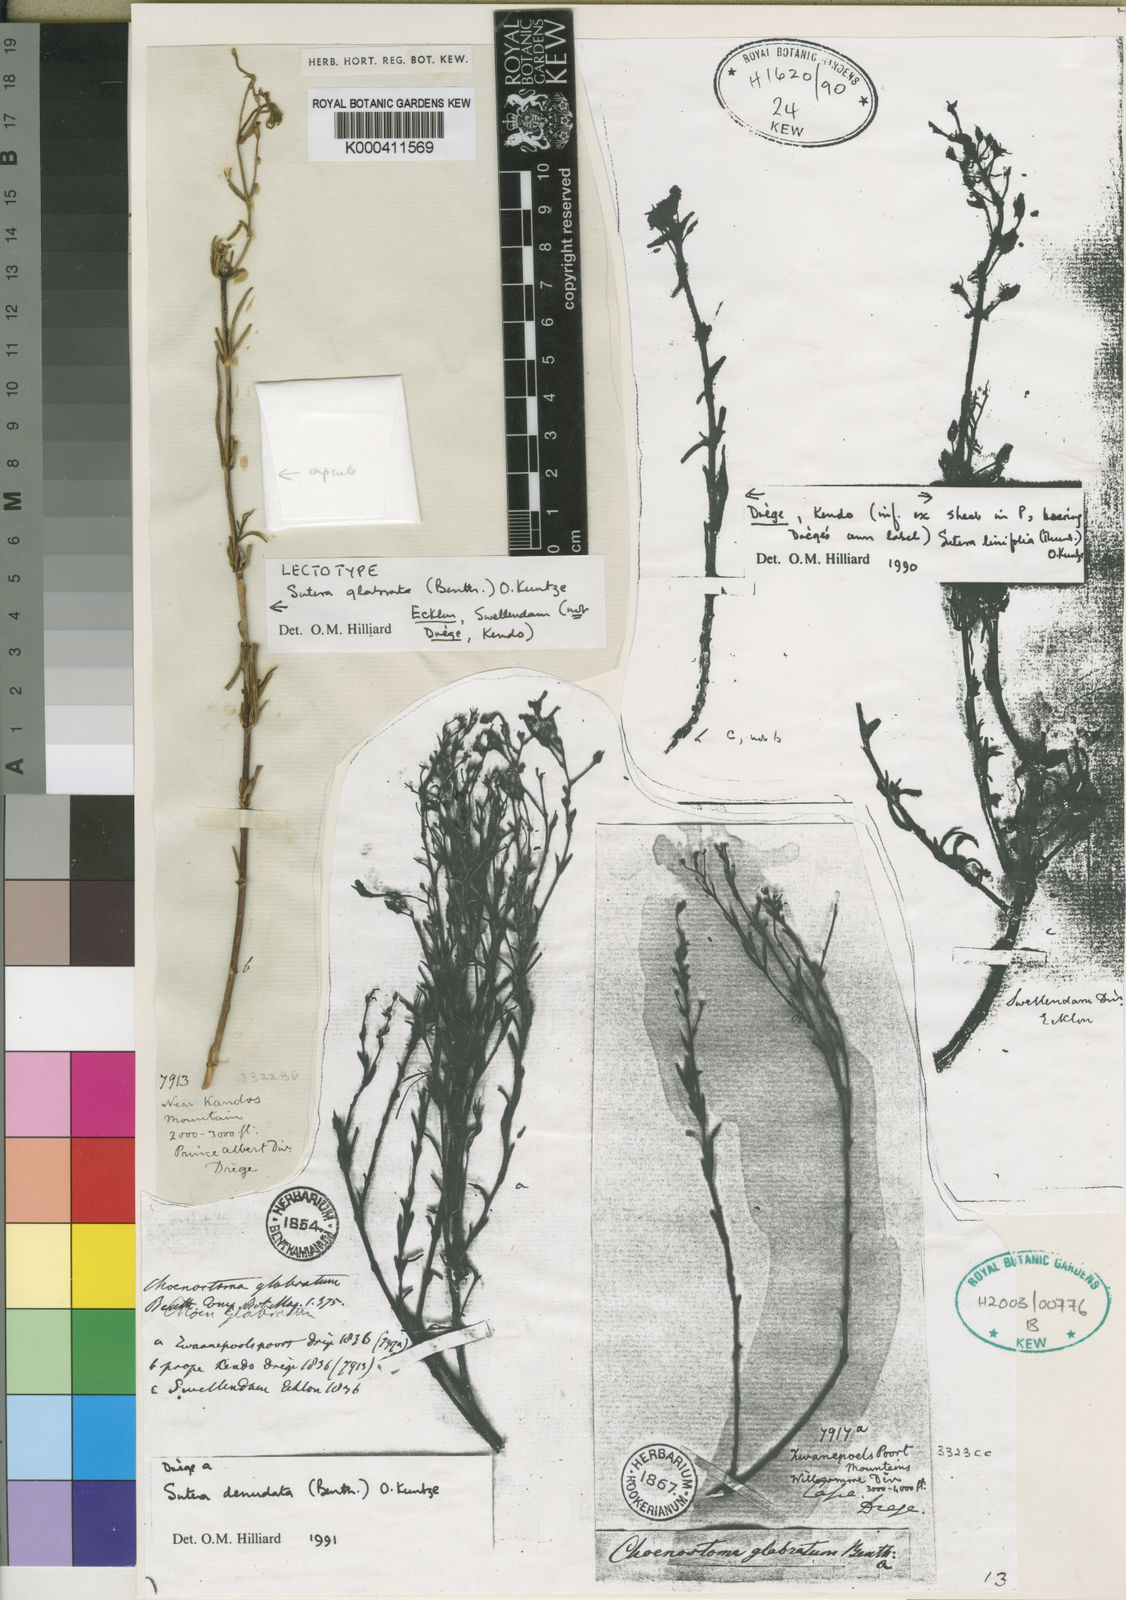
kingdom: Plantae
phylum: Tracheophyta
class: Magnoliopsida
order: Lamiales
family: Scrophulariaceae
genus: Chaenostoma
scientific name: Chaenostoma glabratum
